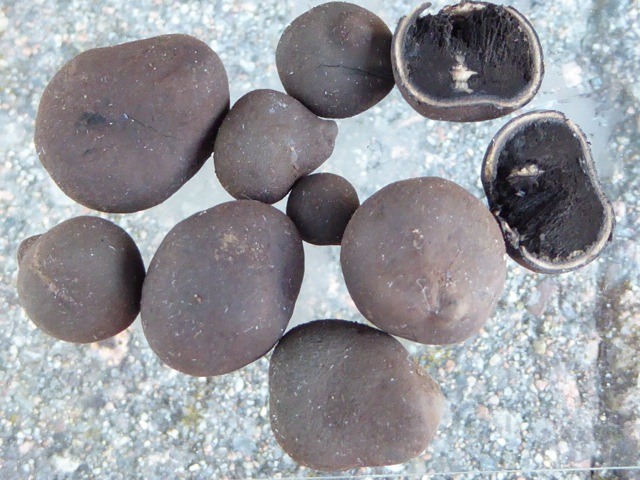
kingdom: Fungi
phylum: Ascomycota
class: Eurotiomycetes
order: Eurotiales
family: Elaphomycetaceae
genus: Elaphomyces
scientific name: Elaphomyces anthracinus
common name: Smooth-coated elaphomyces
